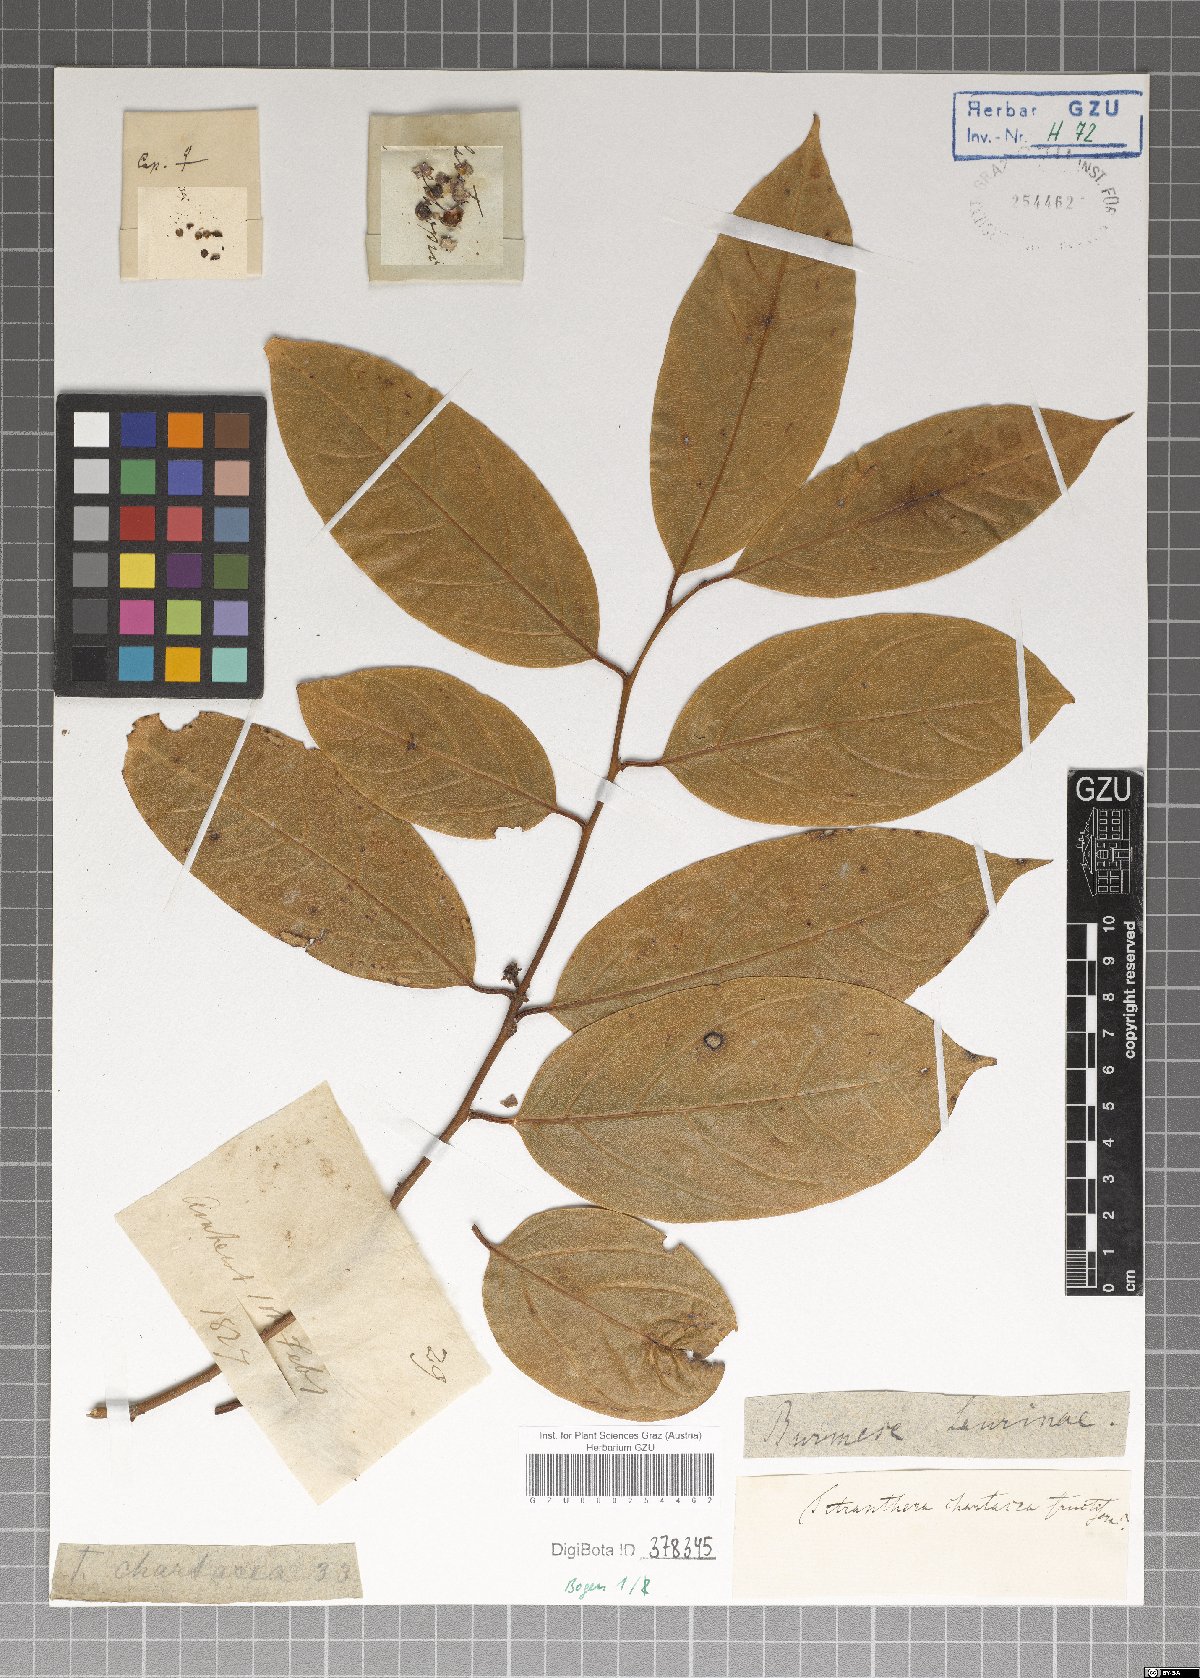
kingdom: Plantae
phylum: Tracheophyta
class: Magnoliopsida
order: Laurales
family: Lauraceae
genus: Litsea
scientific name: Litsea chartacea
